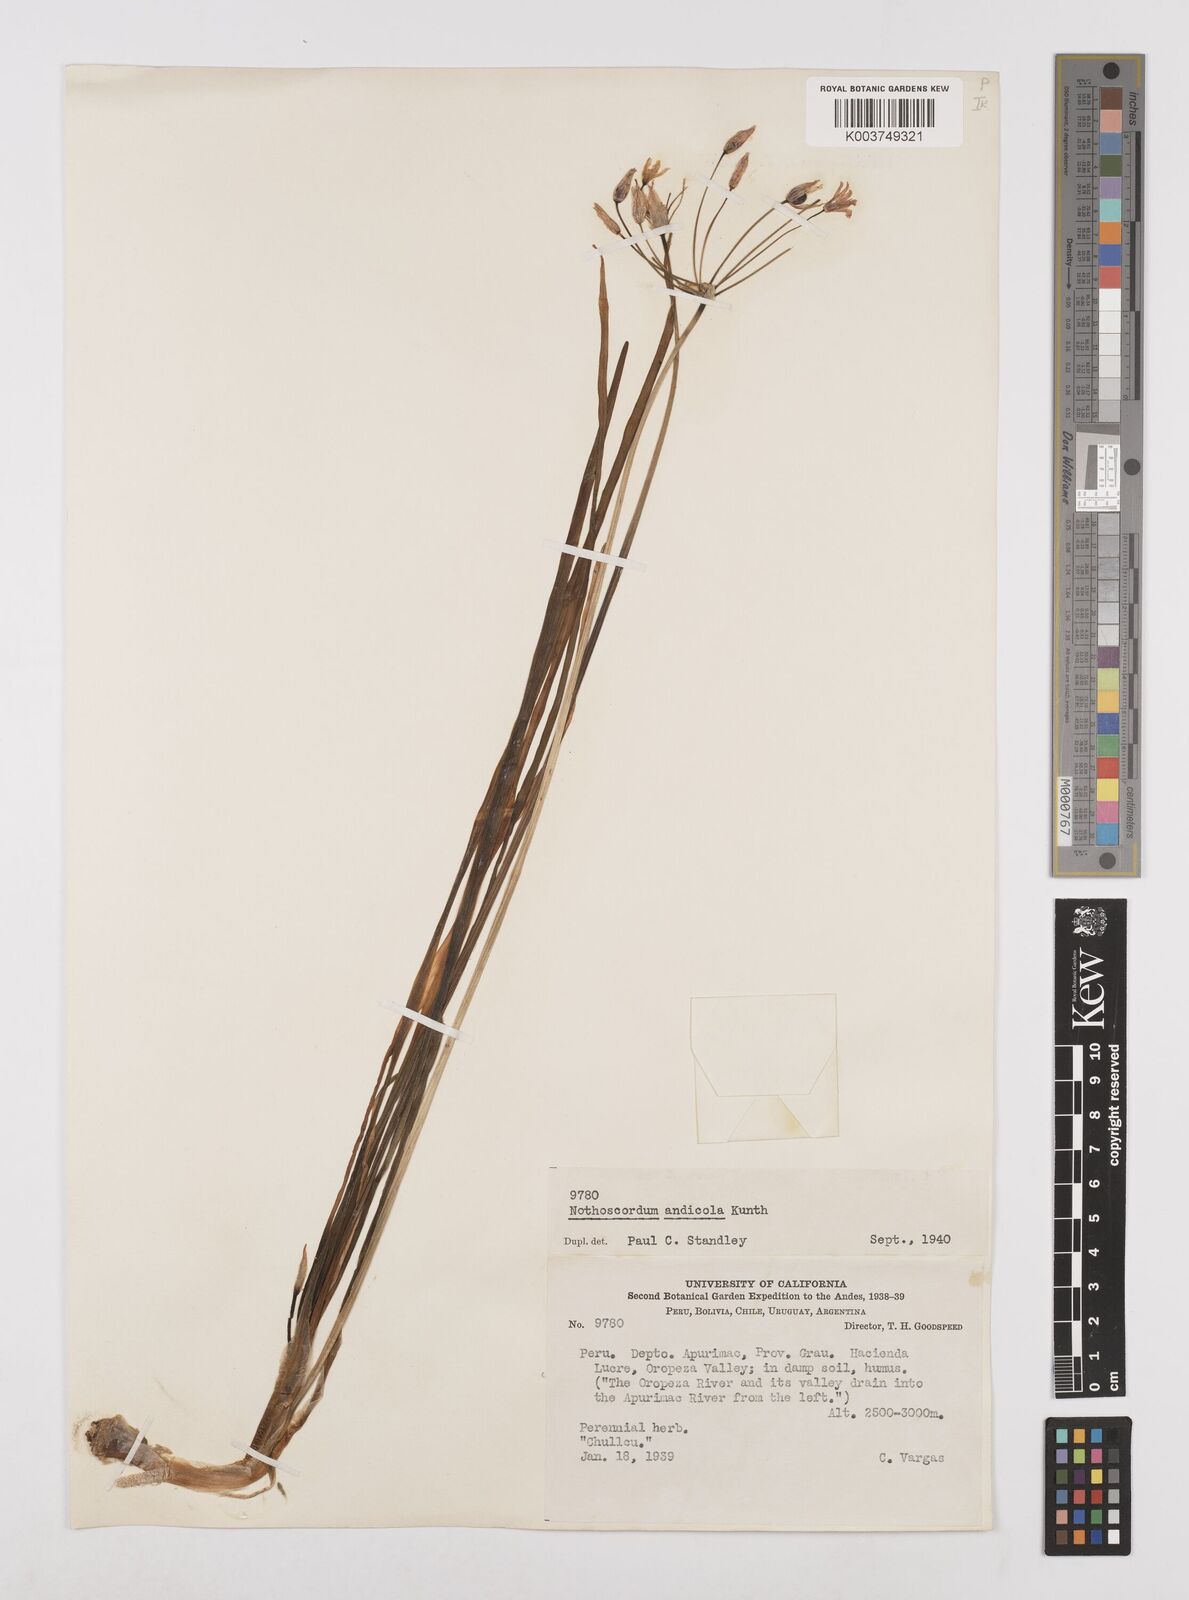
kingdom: Plantae
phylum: Tracheophyta
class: Liliopsida
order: Asparagales
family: Amaryllidaceae
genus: Allium
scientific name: Allium neapolitanum
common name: Neapolitan garlic
